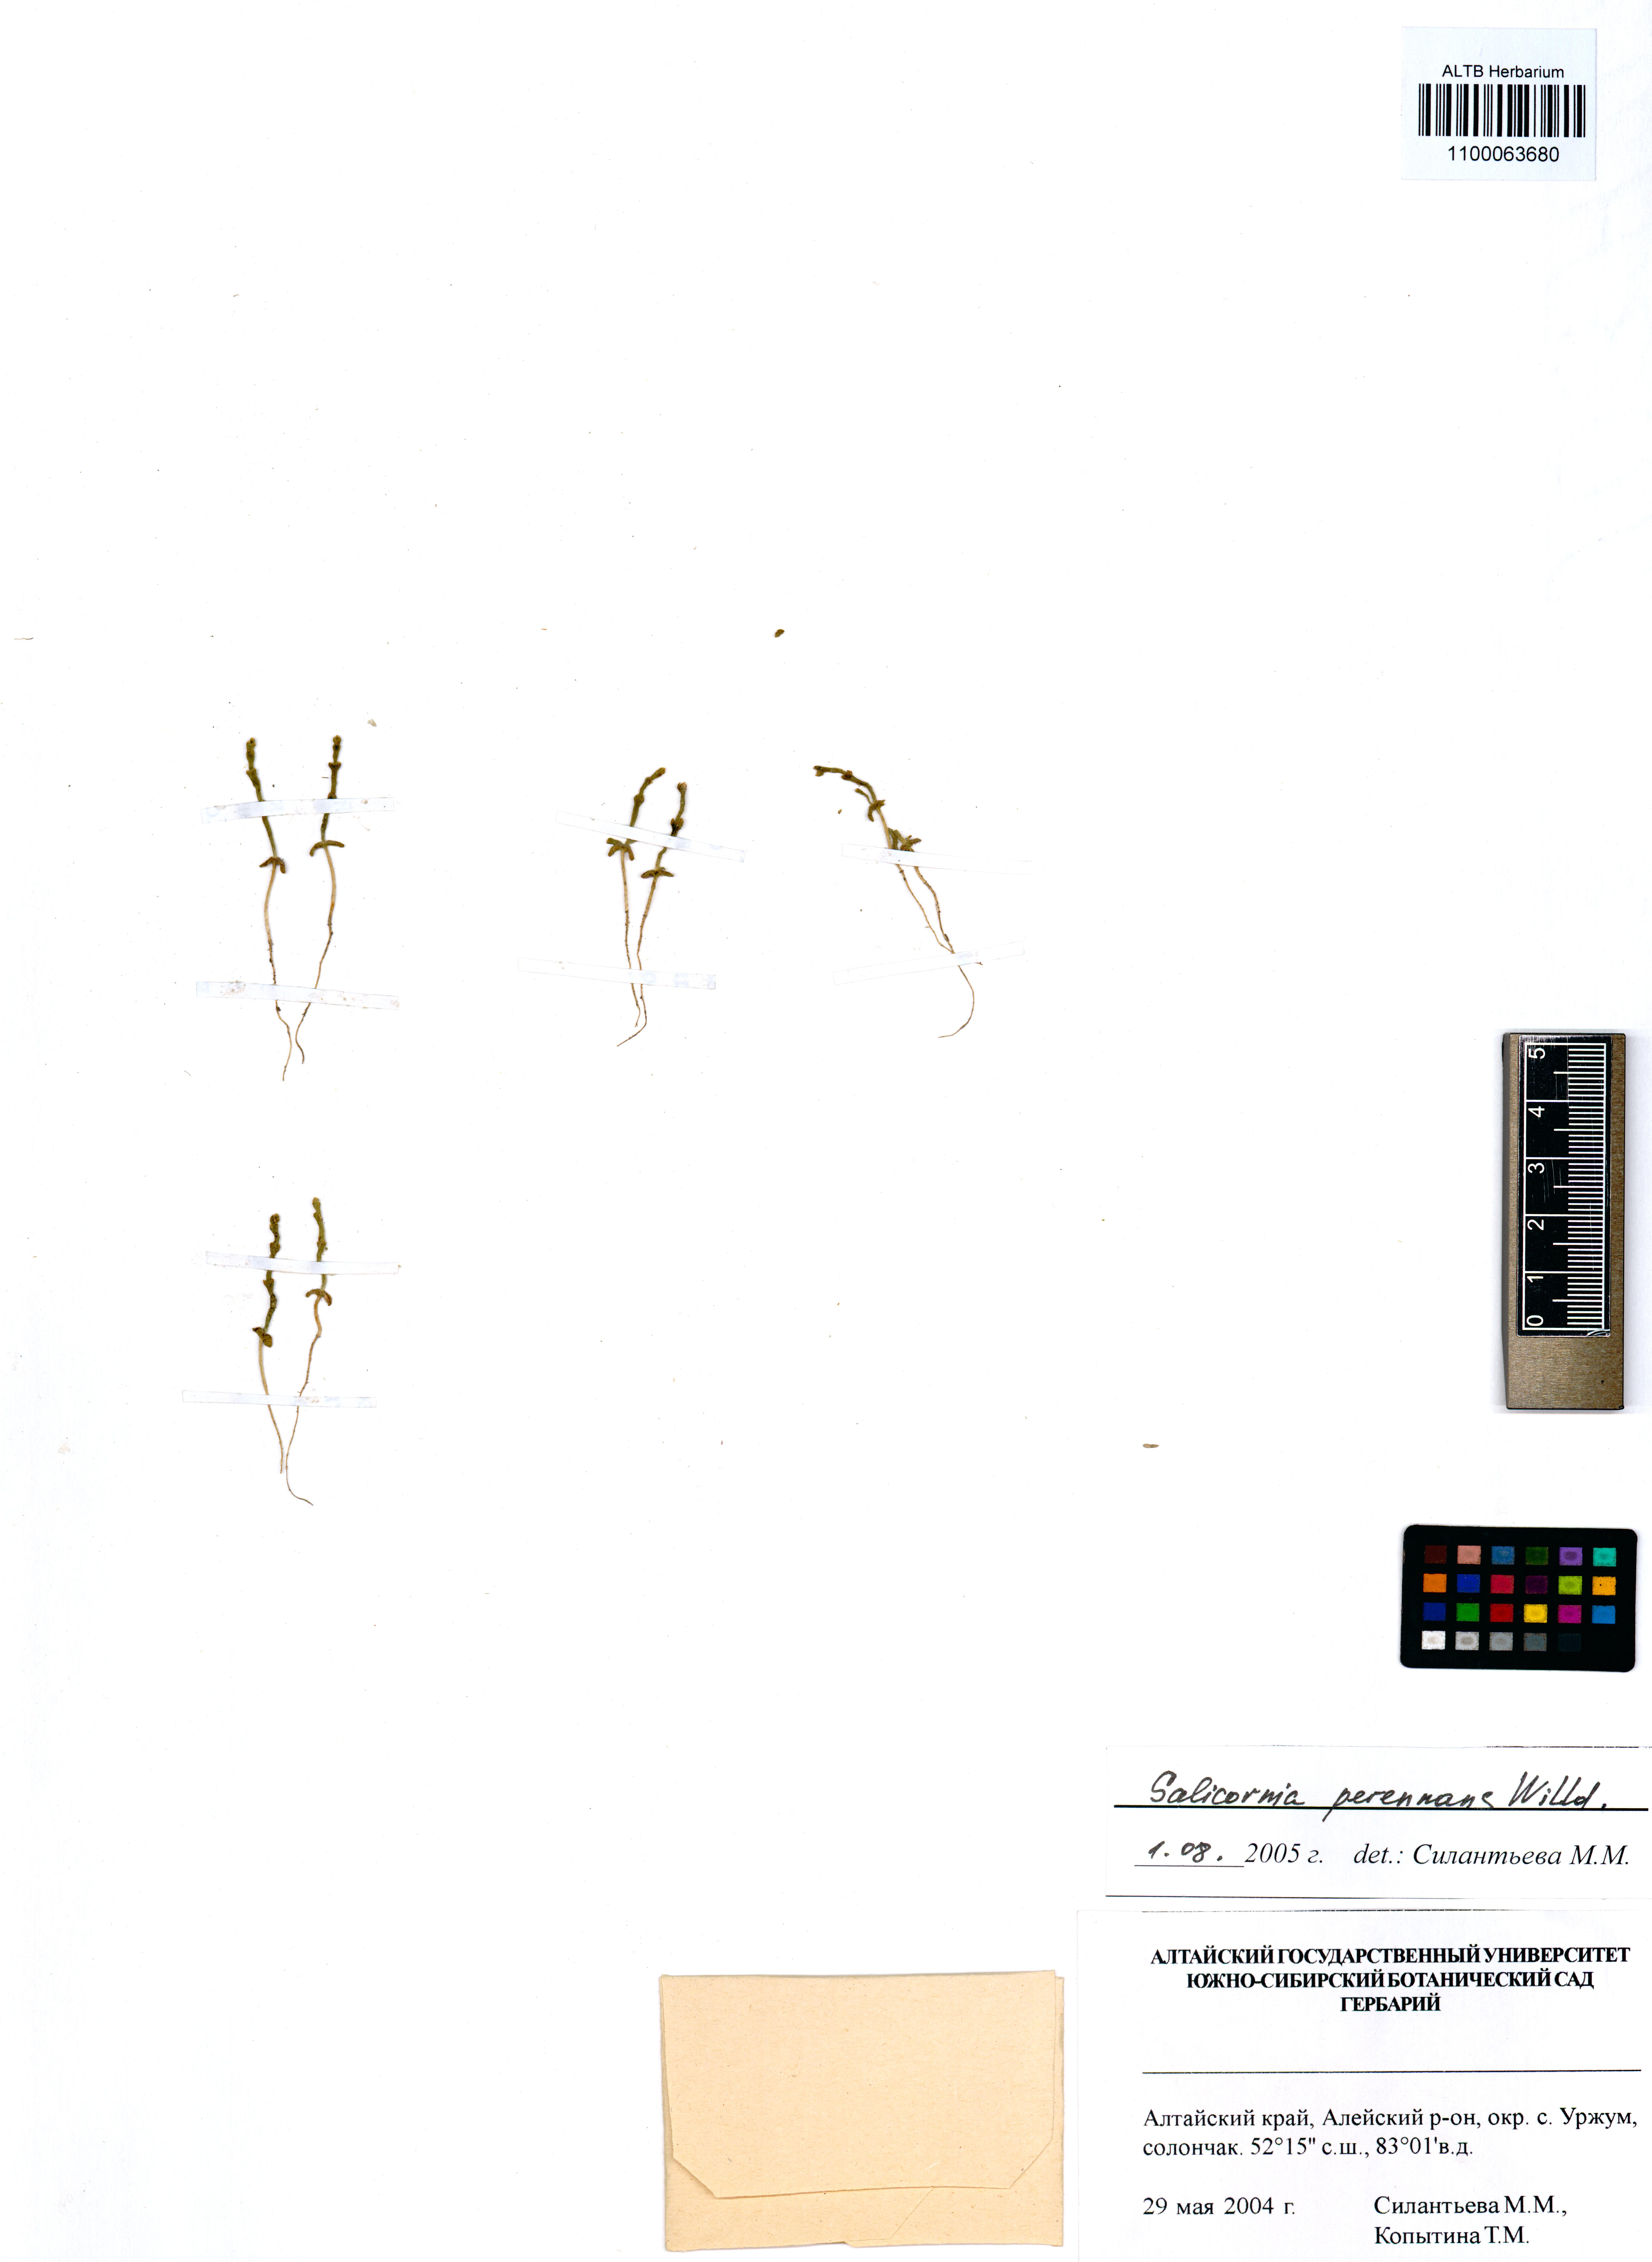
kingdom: Plantae
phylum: Tracheophyta
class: Magnoliopsida
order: Caryophyllales
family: Amaranthaceae
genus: Salicornia
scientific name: Salicornia perennans
